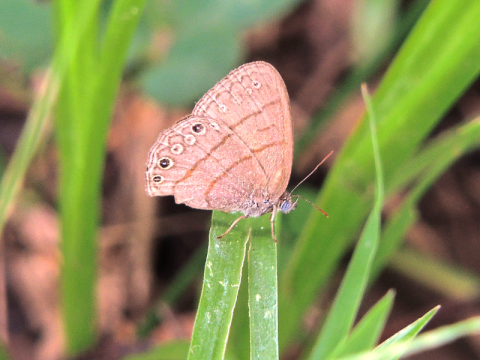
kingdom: Animalia
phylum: Arthropoda
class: Insecta
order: Lepidoptera
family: Nymphalidae
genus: Hermeuptychia
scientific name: Hermeuptychia hermes
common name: Hermes Satyr
